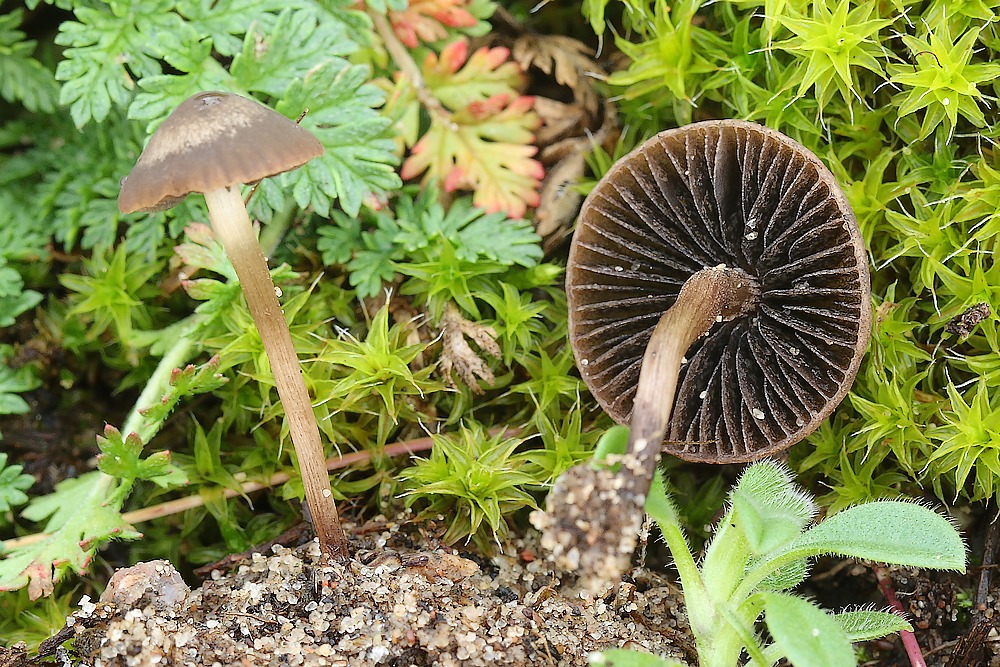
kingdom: Fungi
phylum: Basidiomycota
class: Agaricomycetes
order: Agaricales
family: Bolbitiaceae
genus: Panaeolus
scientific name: Panaeolus fimicola
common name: tidlig glanshat
